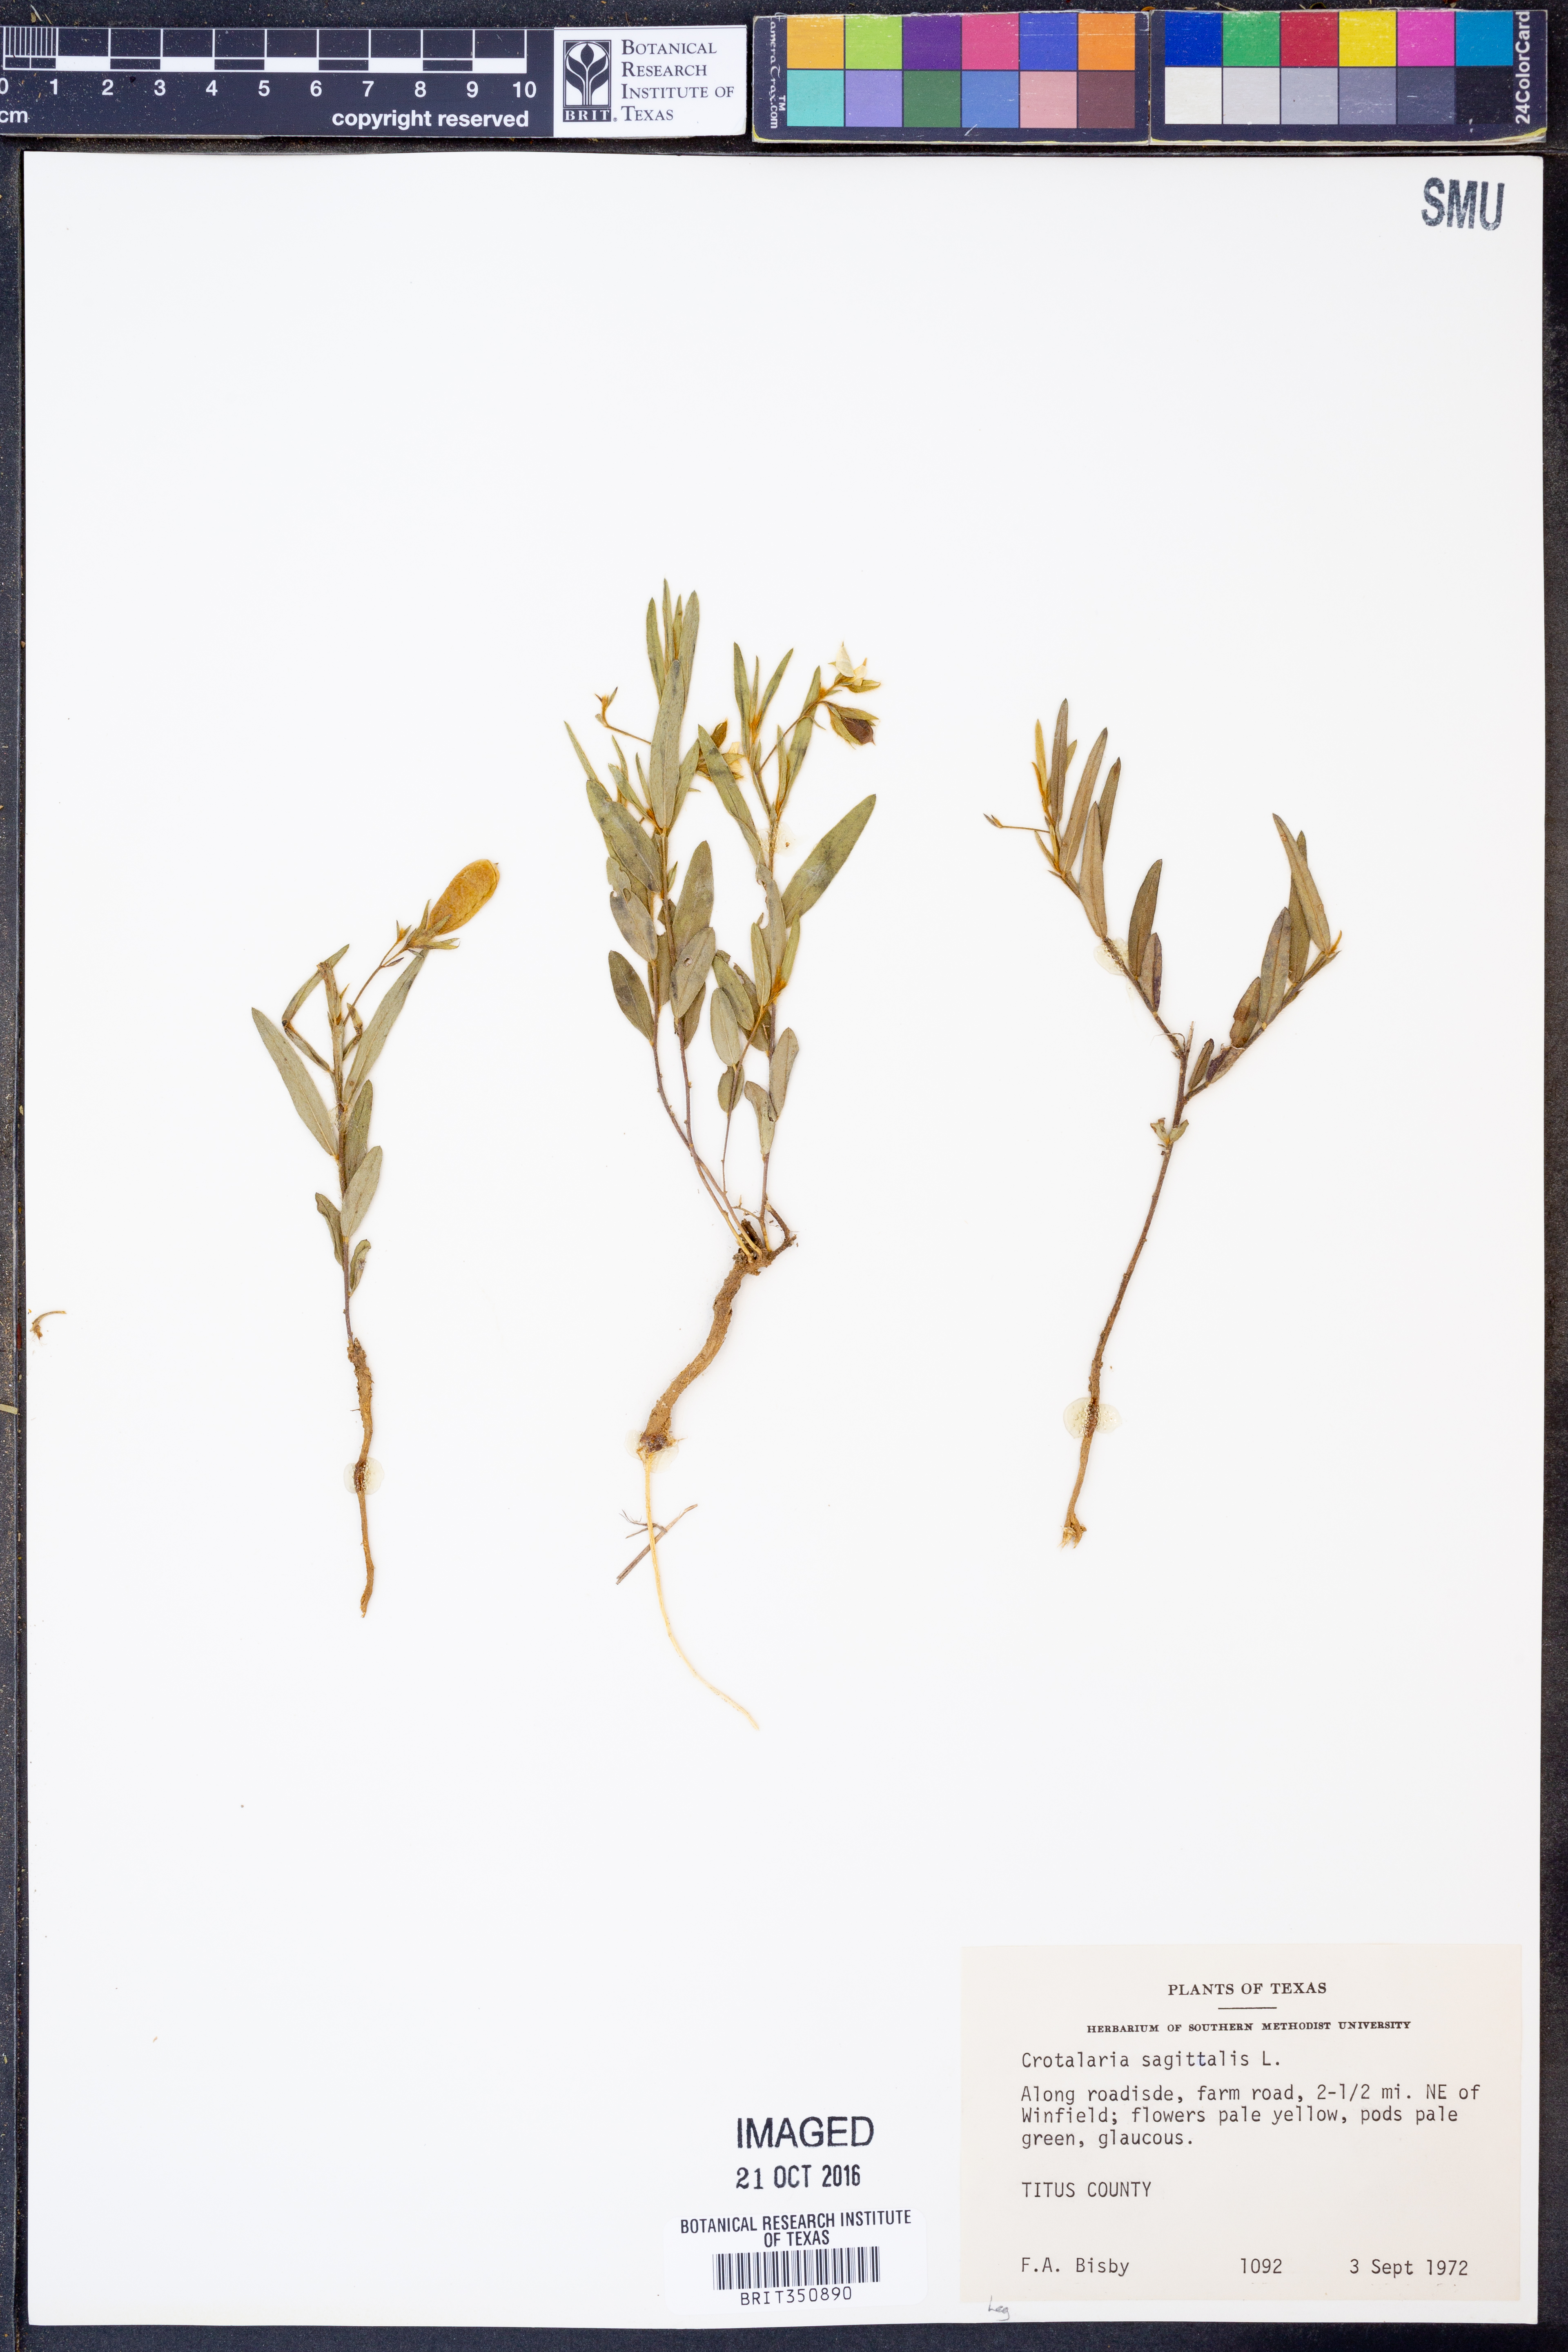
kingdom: Plantae
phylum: Tracheophyta
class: Magnoliopsida
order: Fabales
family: Fabaceae
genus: Crotalaria
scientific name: Crotalaria sagittalis
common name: Arrowhead rattlebox
